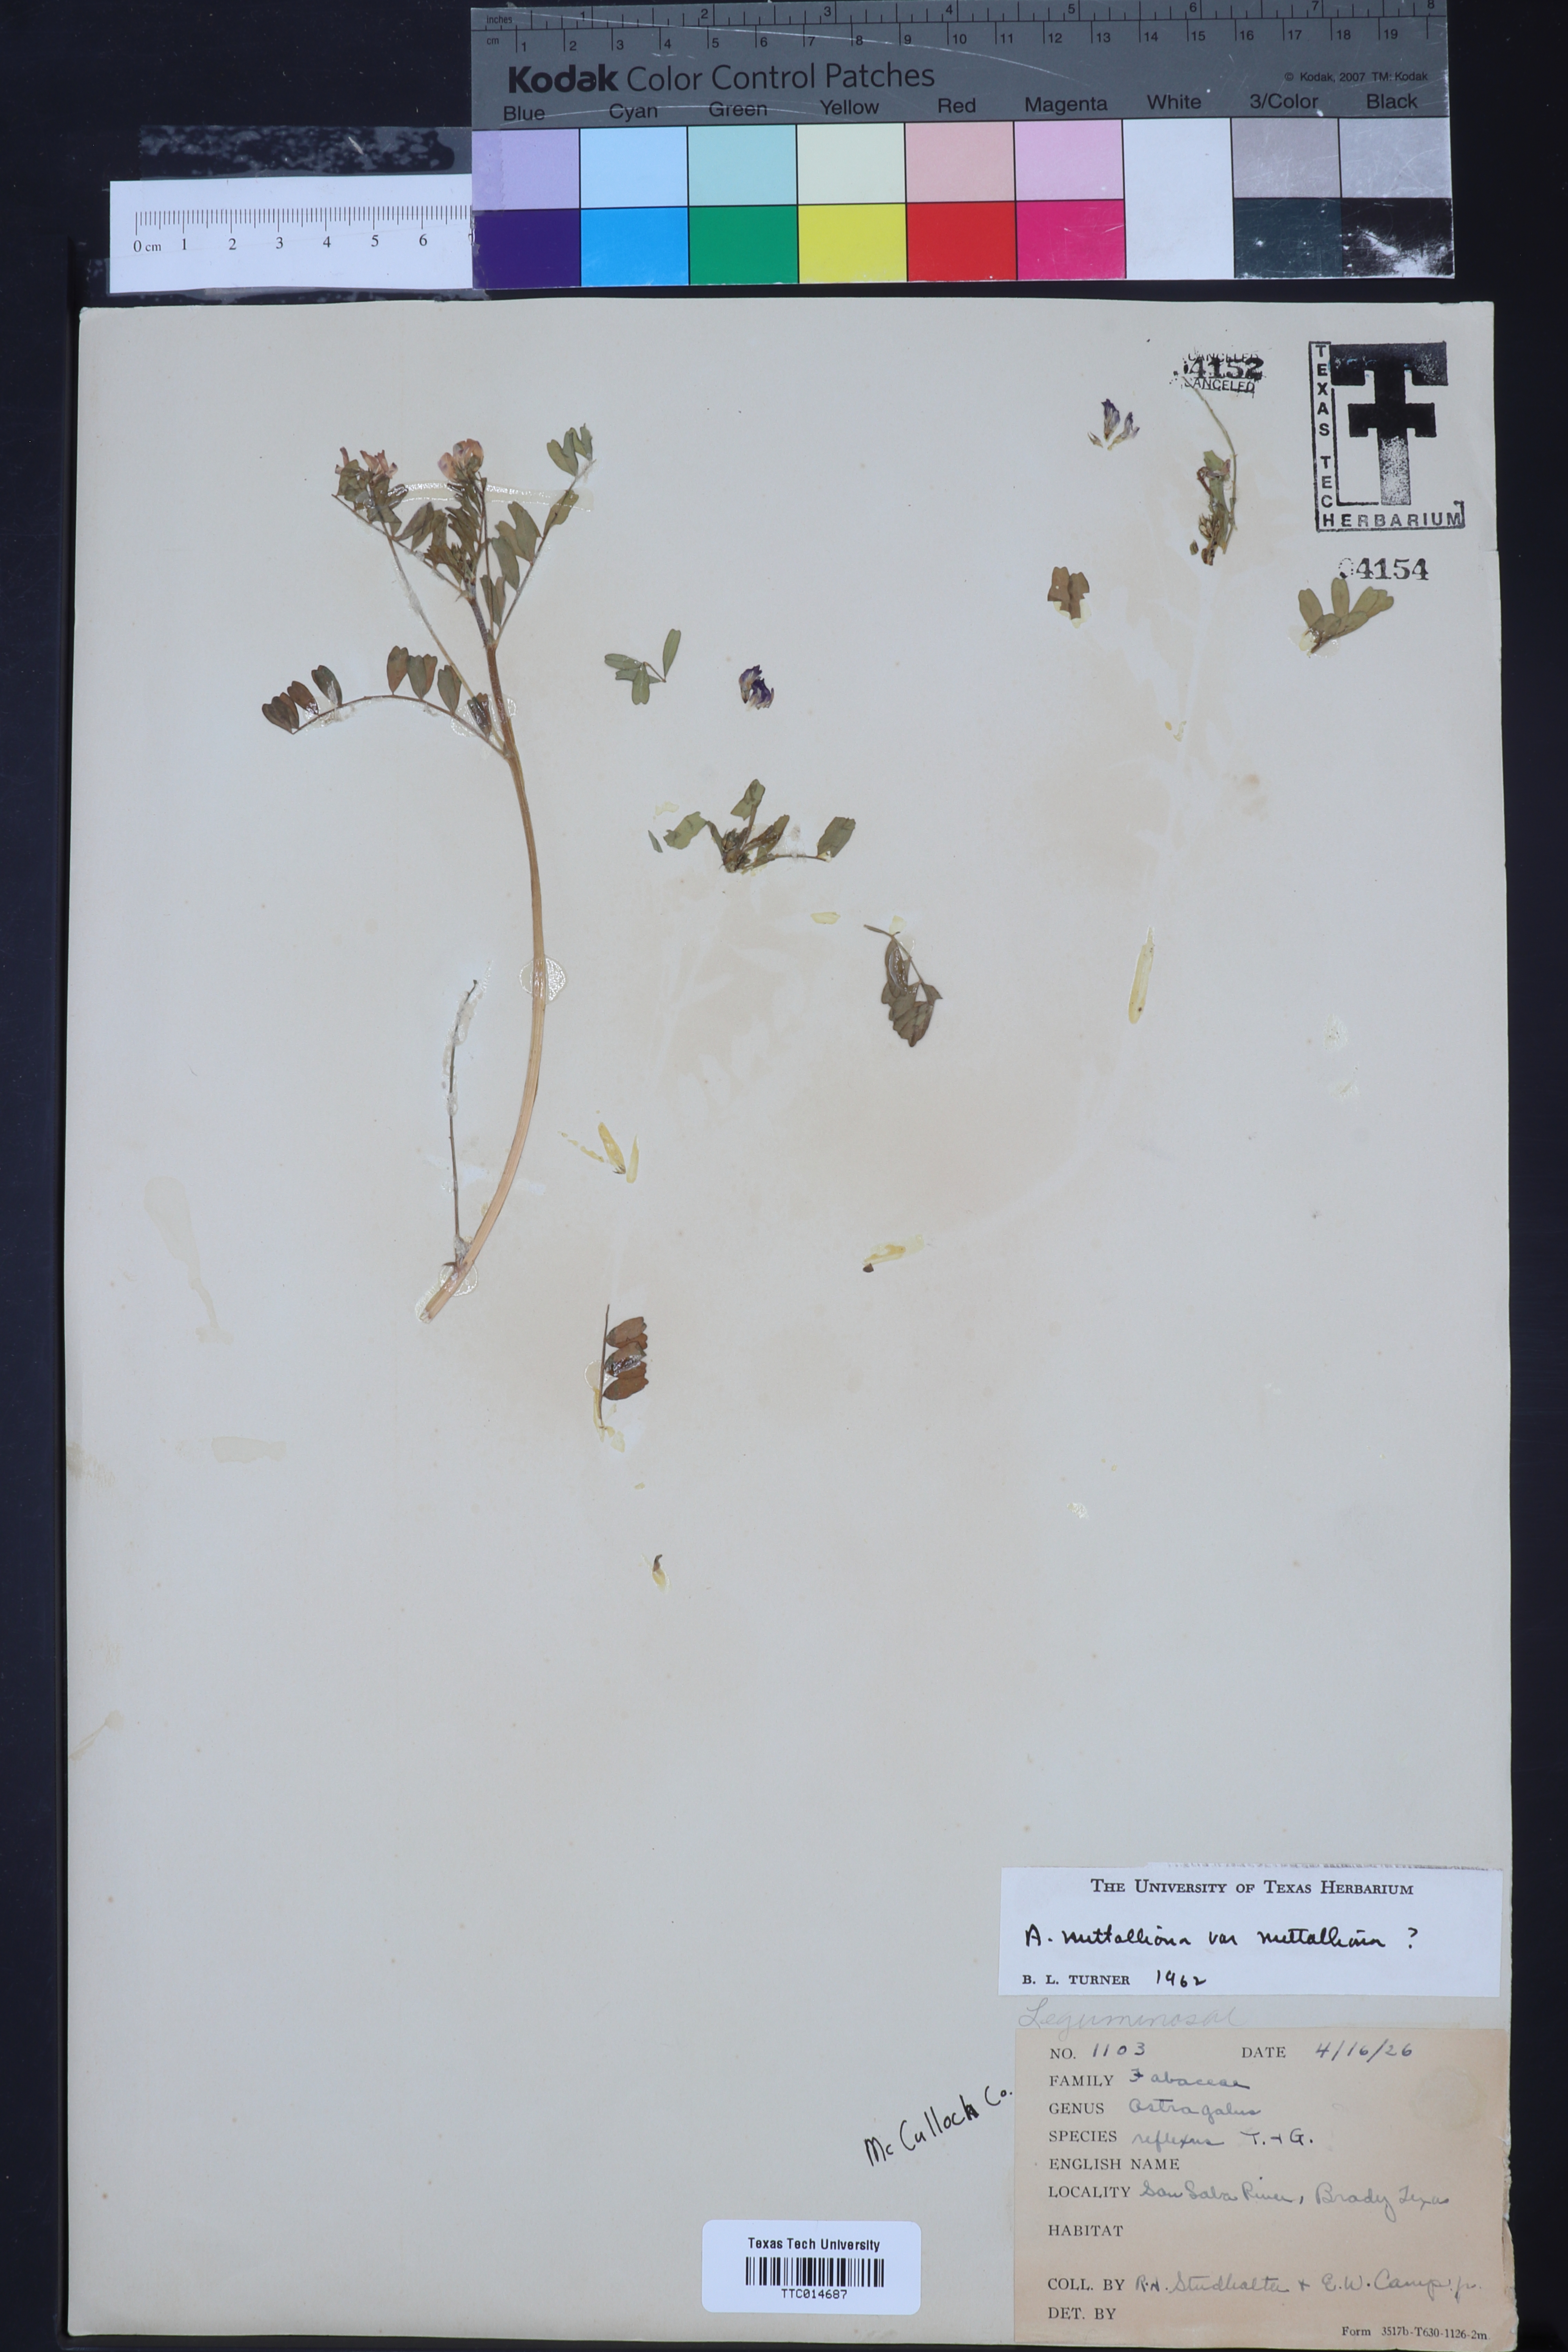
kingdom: Plantae
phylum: Tracheophyta
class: Magnoliopsida
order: Fabales
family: Fabaceae
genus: Astragalus
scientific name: Astragalus nuttallianus
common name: Smallflowered milkvetch
